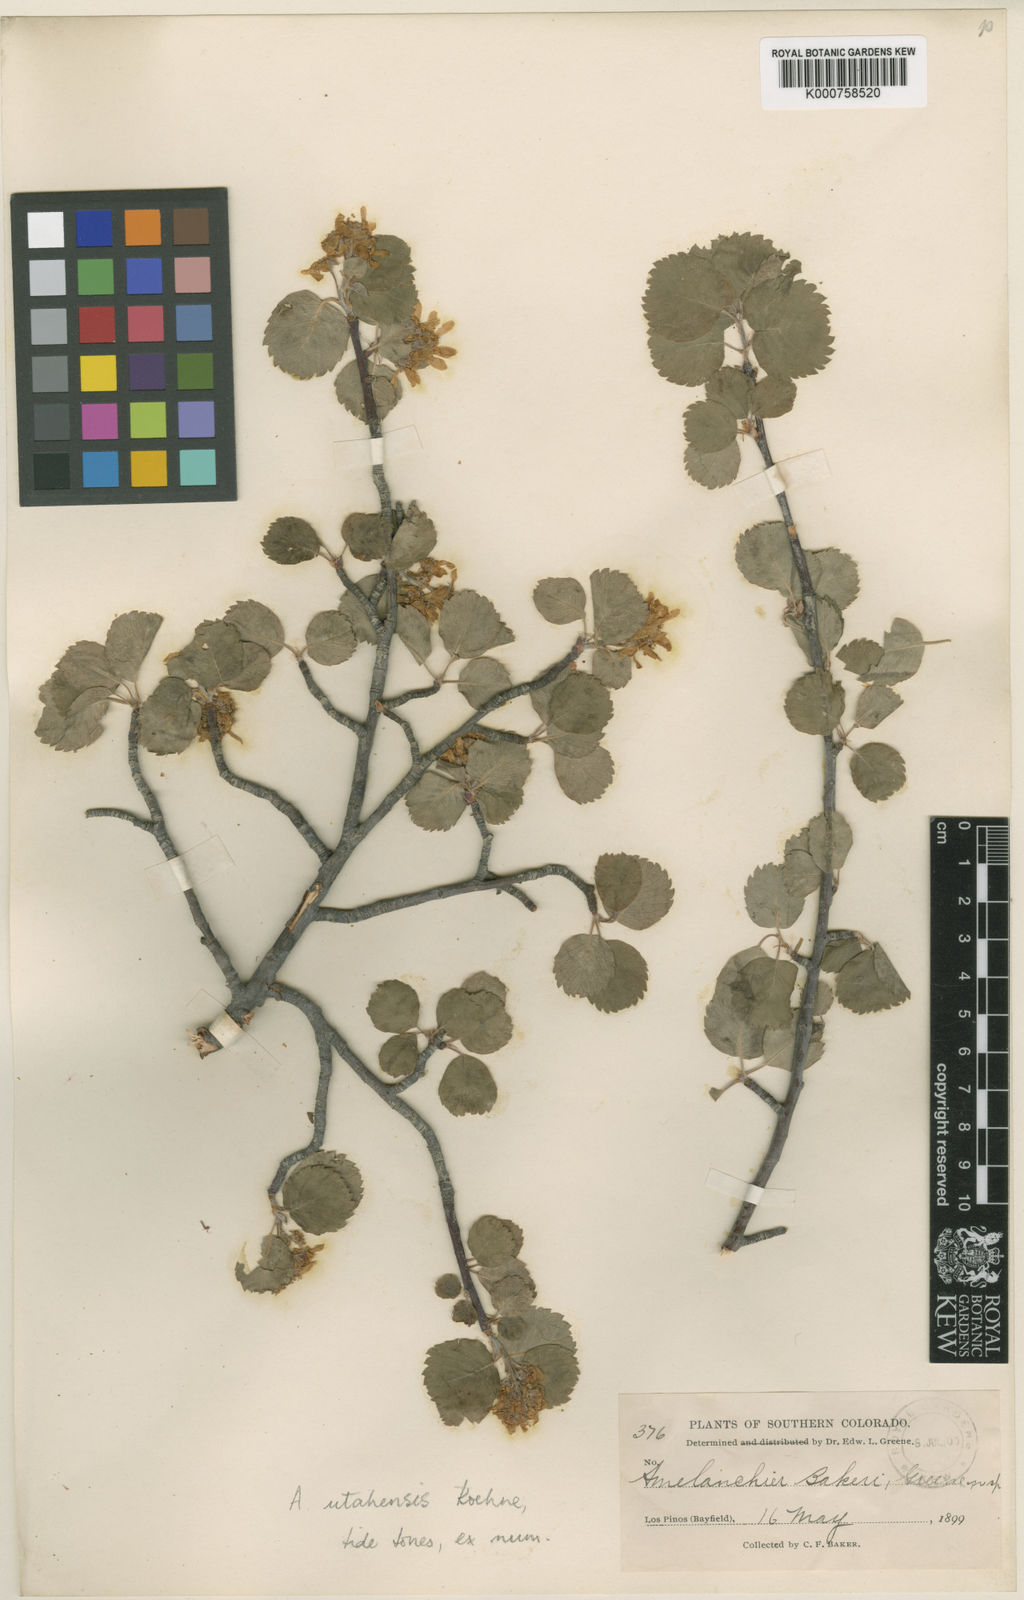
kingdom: Plantae
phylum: Tracheophyta
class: Magnoliopsida
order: Rosales
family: Rosaceae
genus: Amelanchier
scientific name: Amelanchier utahensis
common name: Utah serviceberry
